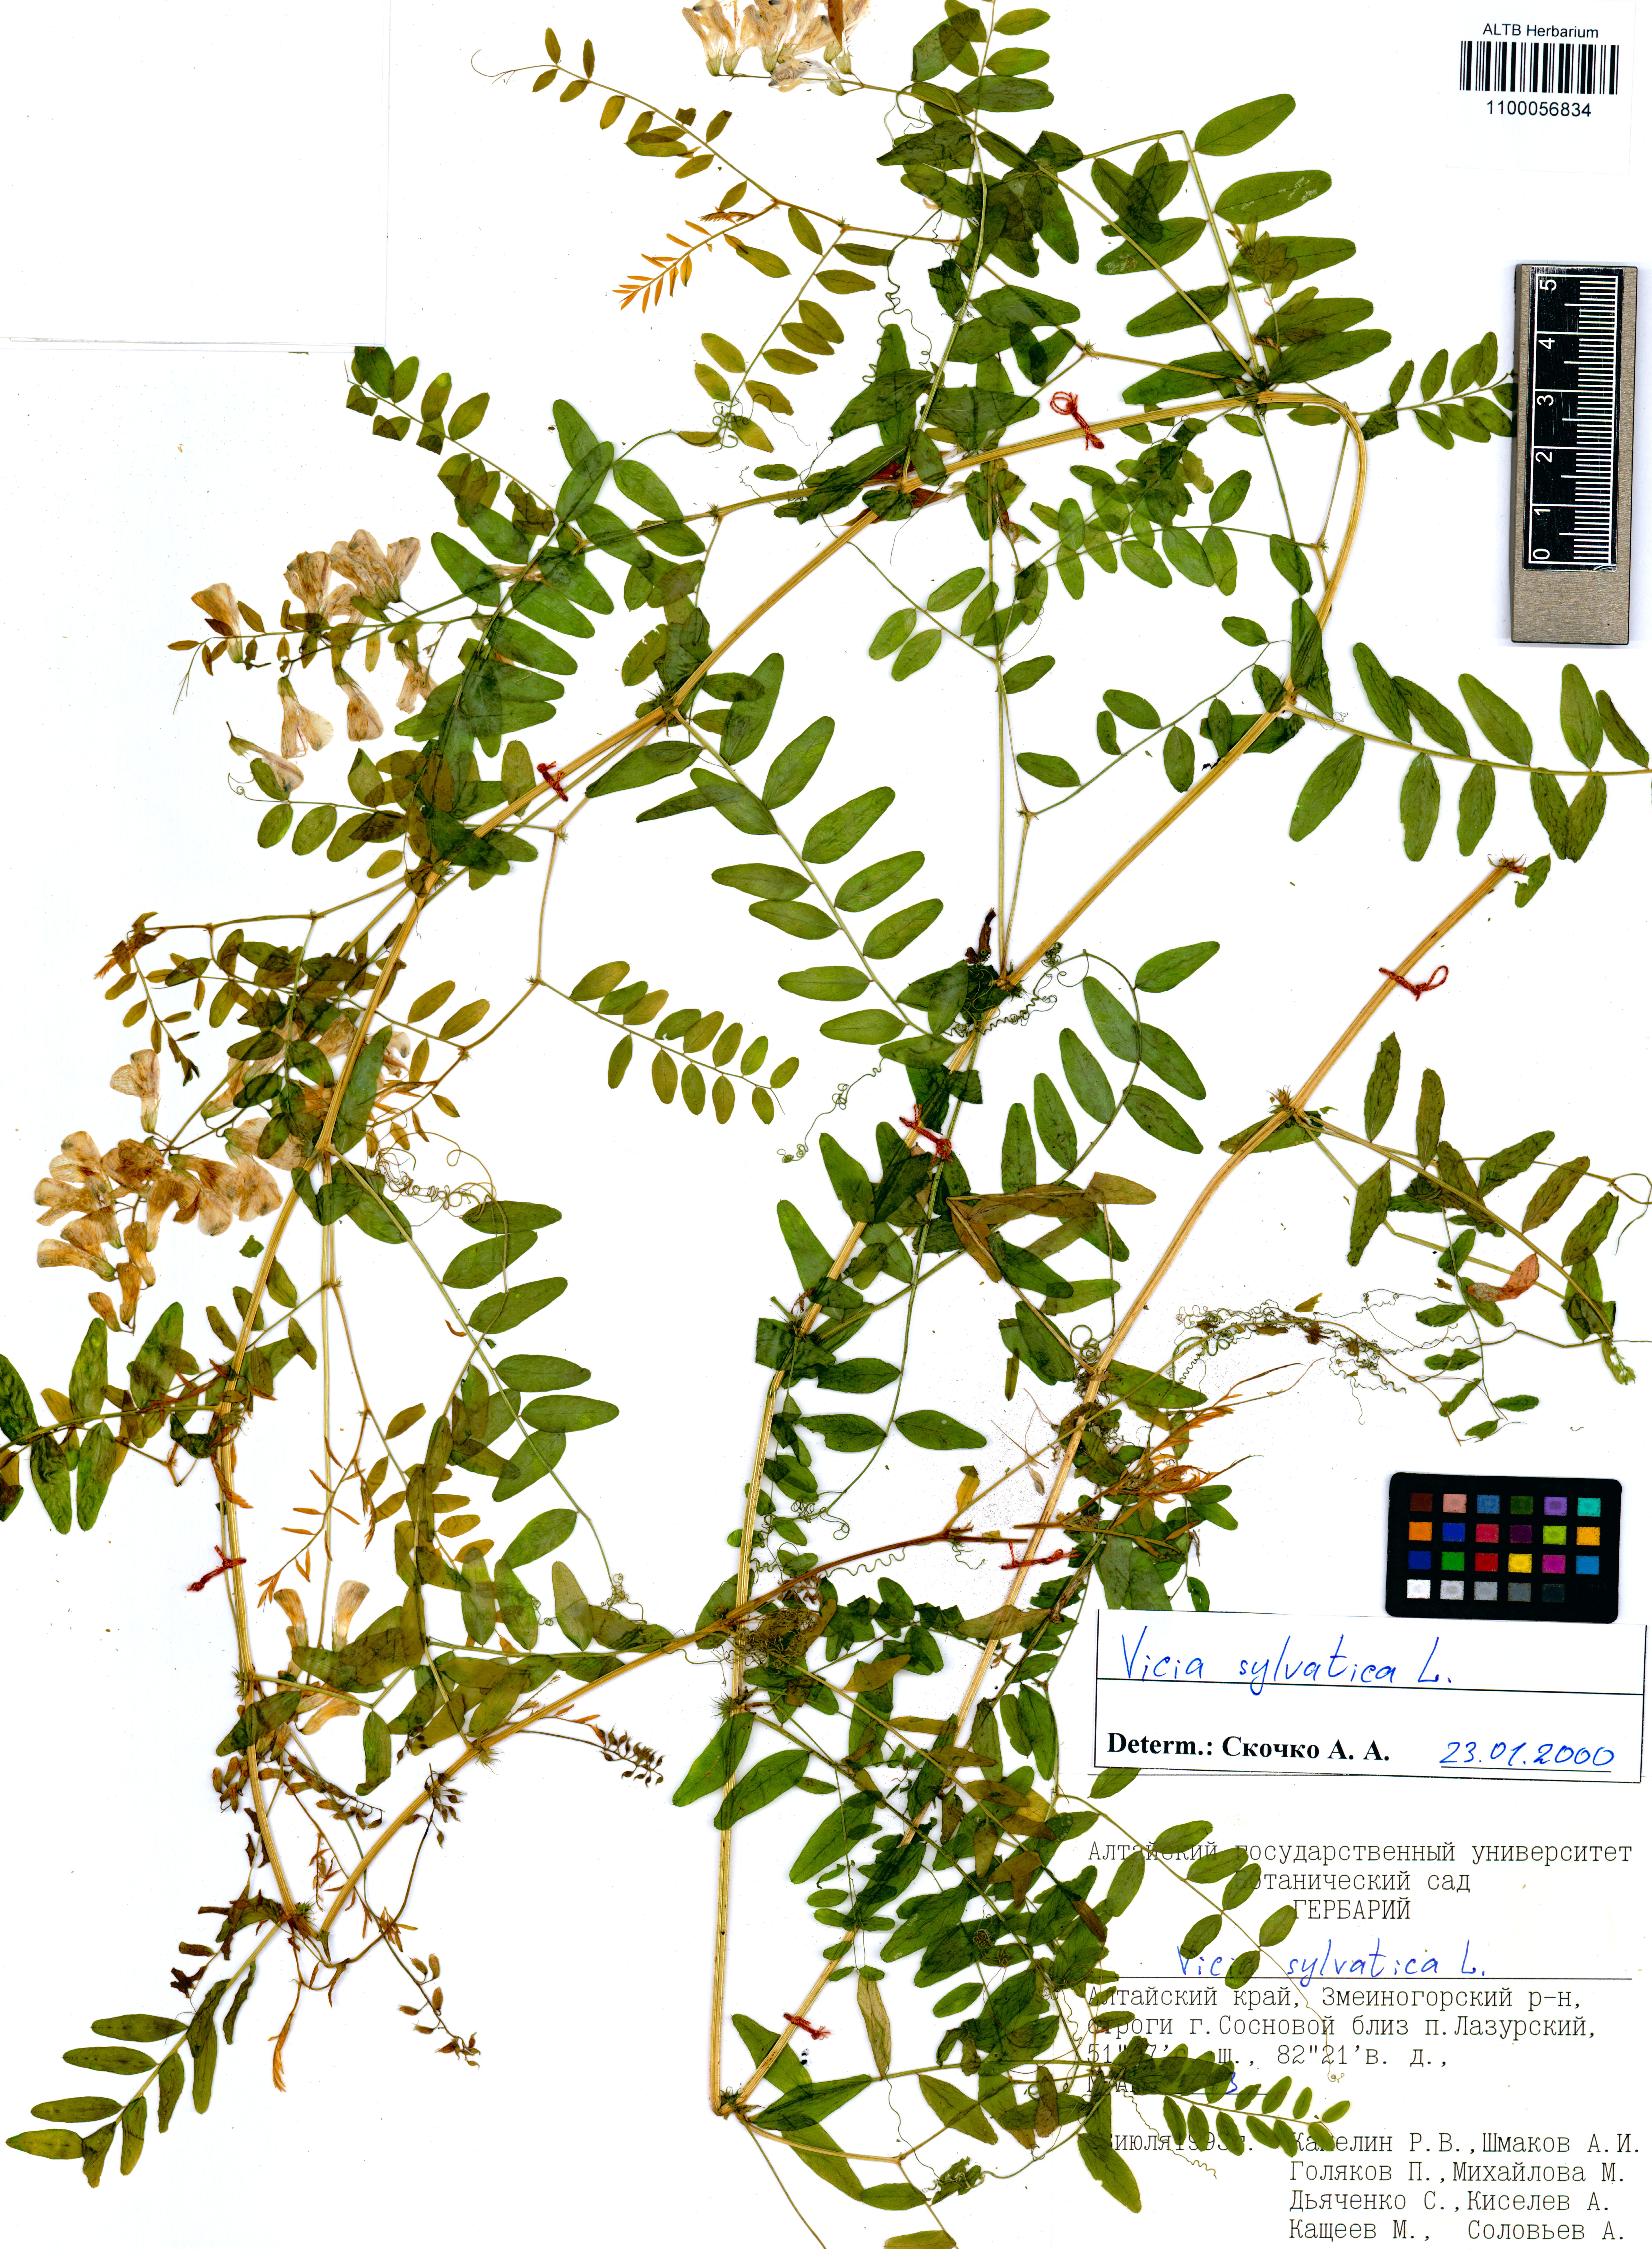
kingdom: Plantae
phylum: Tracheophyta
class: Magnoliopsida
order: Fabales
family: Fabaceae
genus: Vicia
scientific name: Vicia sylvatica
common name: Wood vetch
